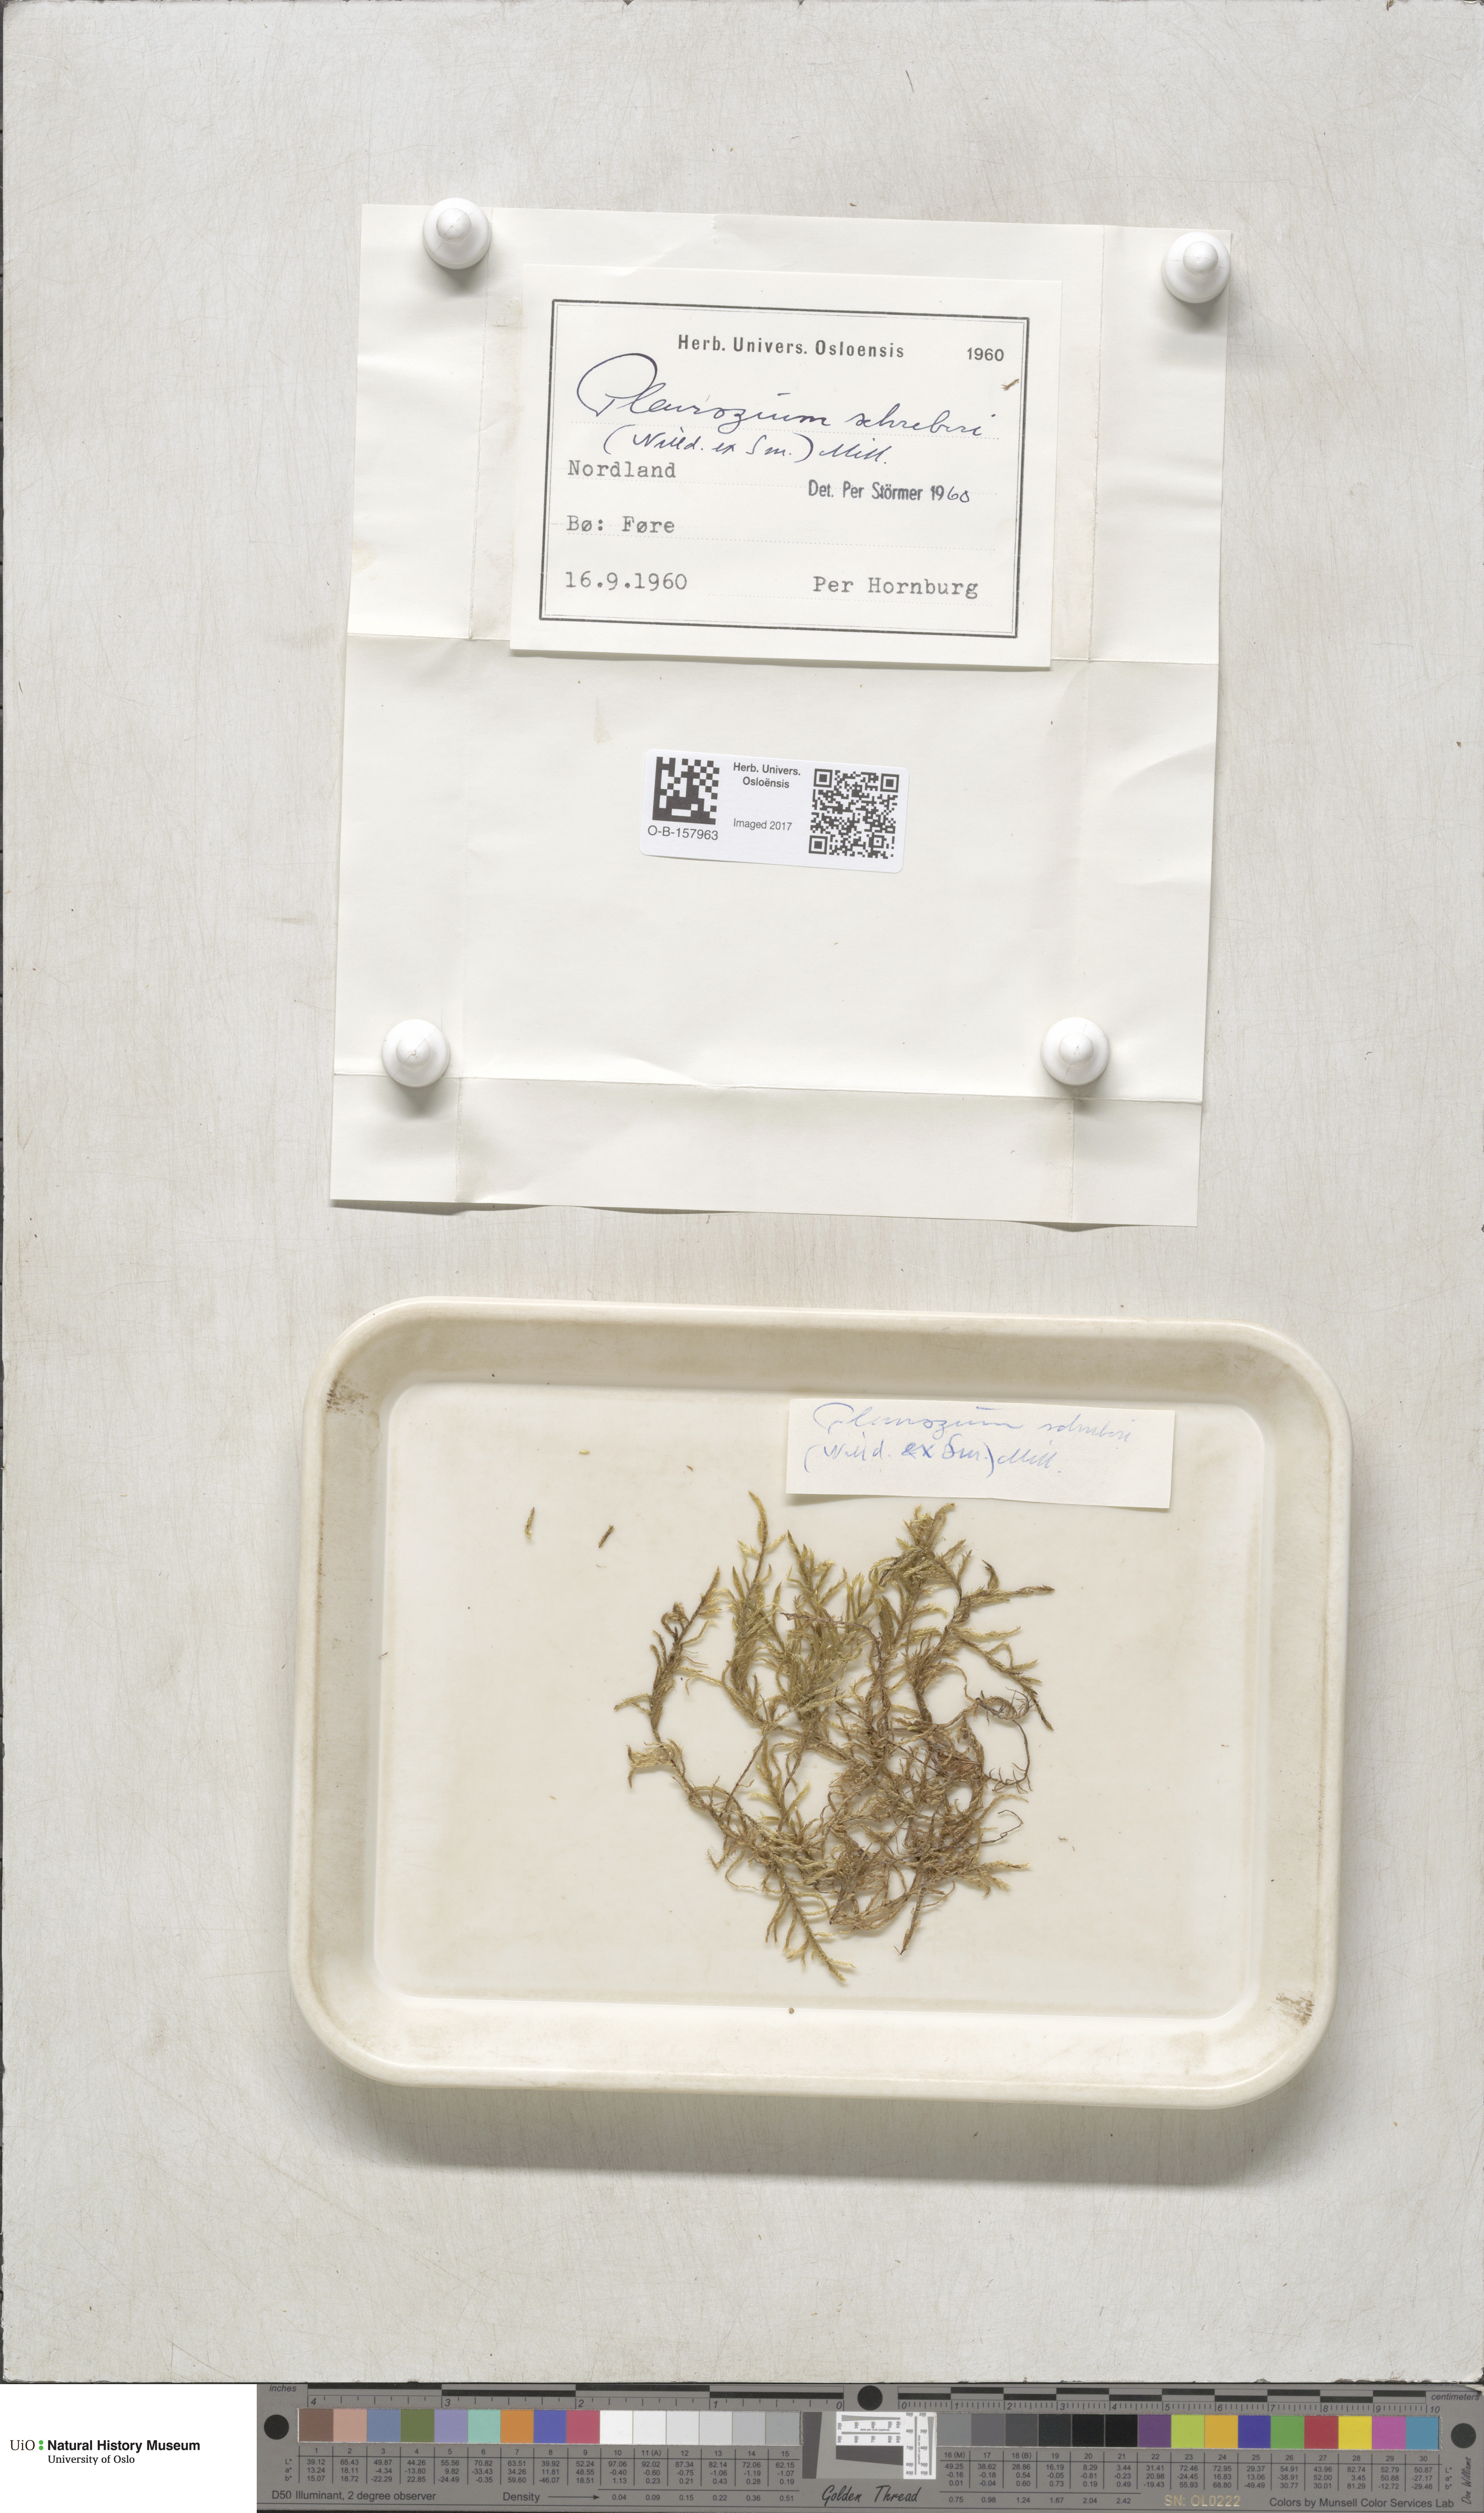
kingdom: Plantae
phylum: Bryophyta
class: Bryopsida
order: Hypnales
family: Hylocomiaceae
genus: Pleurozium
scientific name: Pleurozium schreberi
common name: Red-stemmed feather moss
